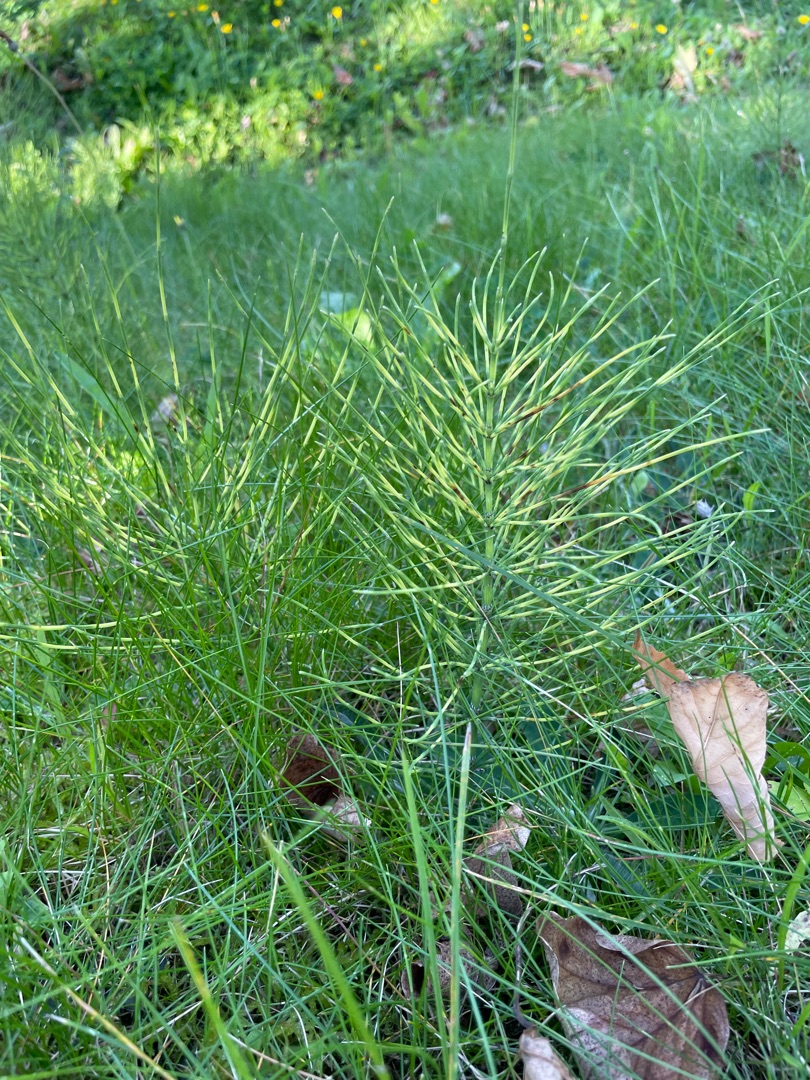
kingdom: Plantae
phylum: Tracheophyta
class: Polypodiopsida
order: Equisetales
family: Equisetaceae
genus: Equisetum
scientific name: Equisetum arvense
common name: Ager-padderok
